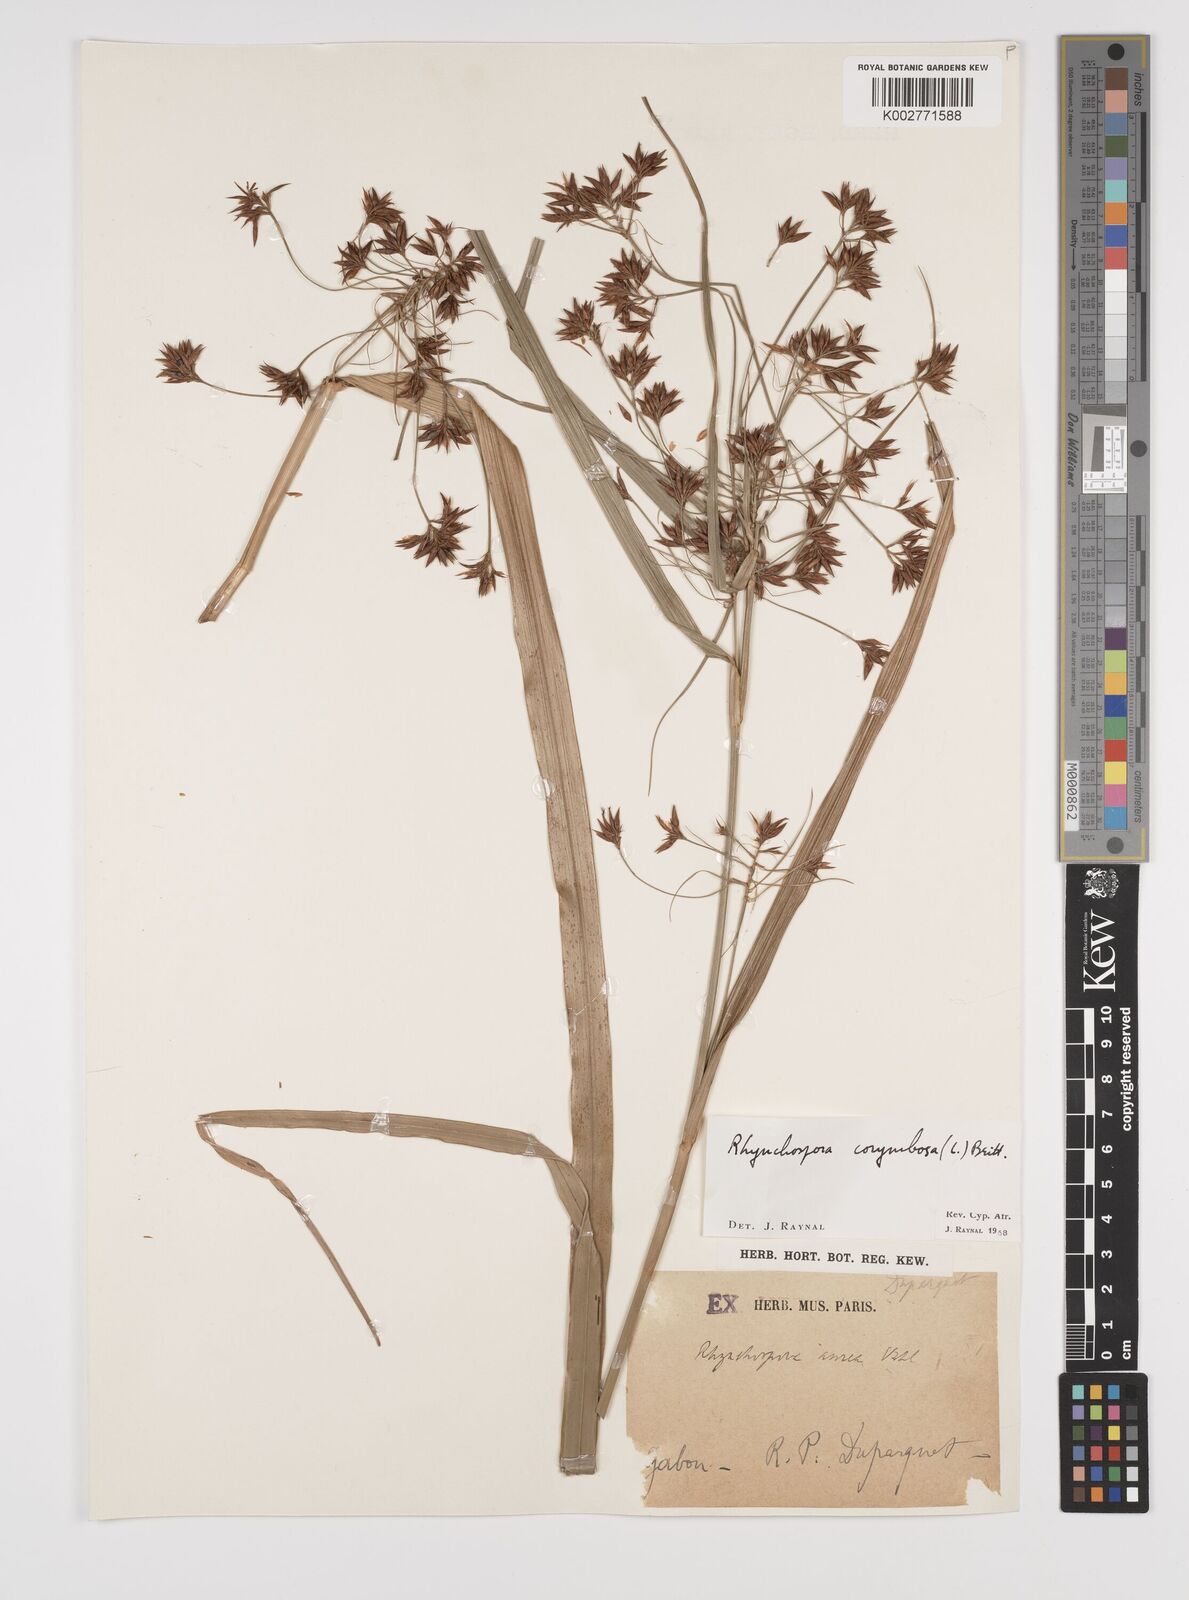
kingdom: Plantae
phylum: Tracheophyta
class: Liliopsida
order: Poales
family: Cyperaceae
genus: Rhynchospora
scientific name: Rhynchospora corymbosa
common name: Golden beak sedge
